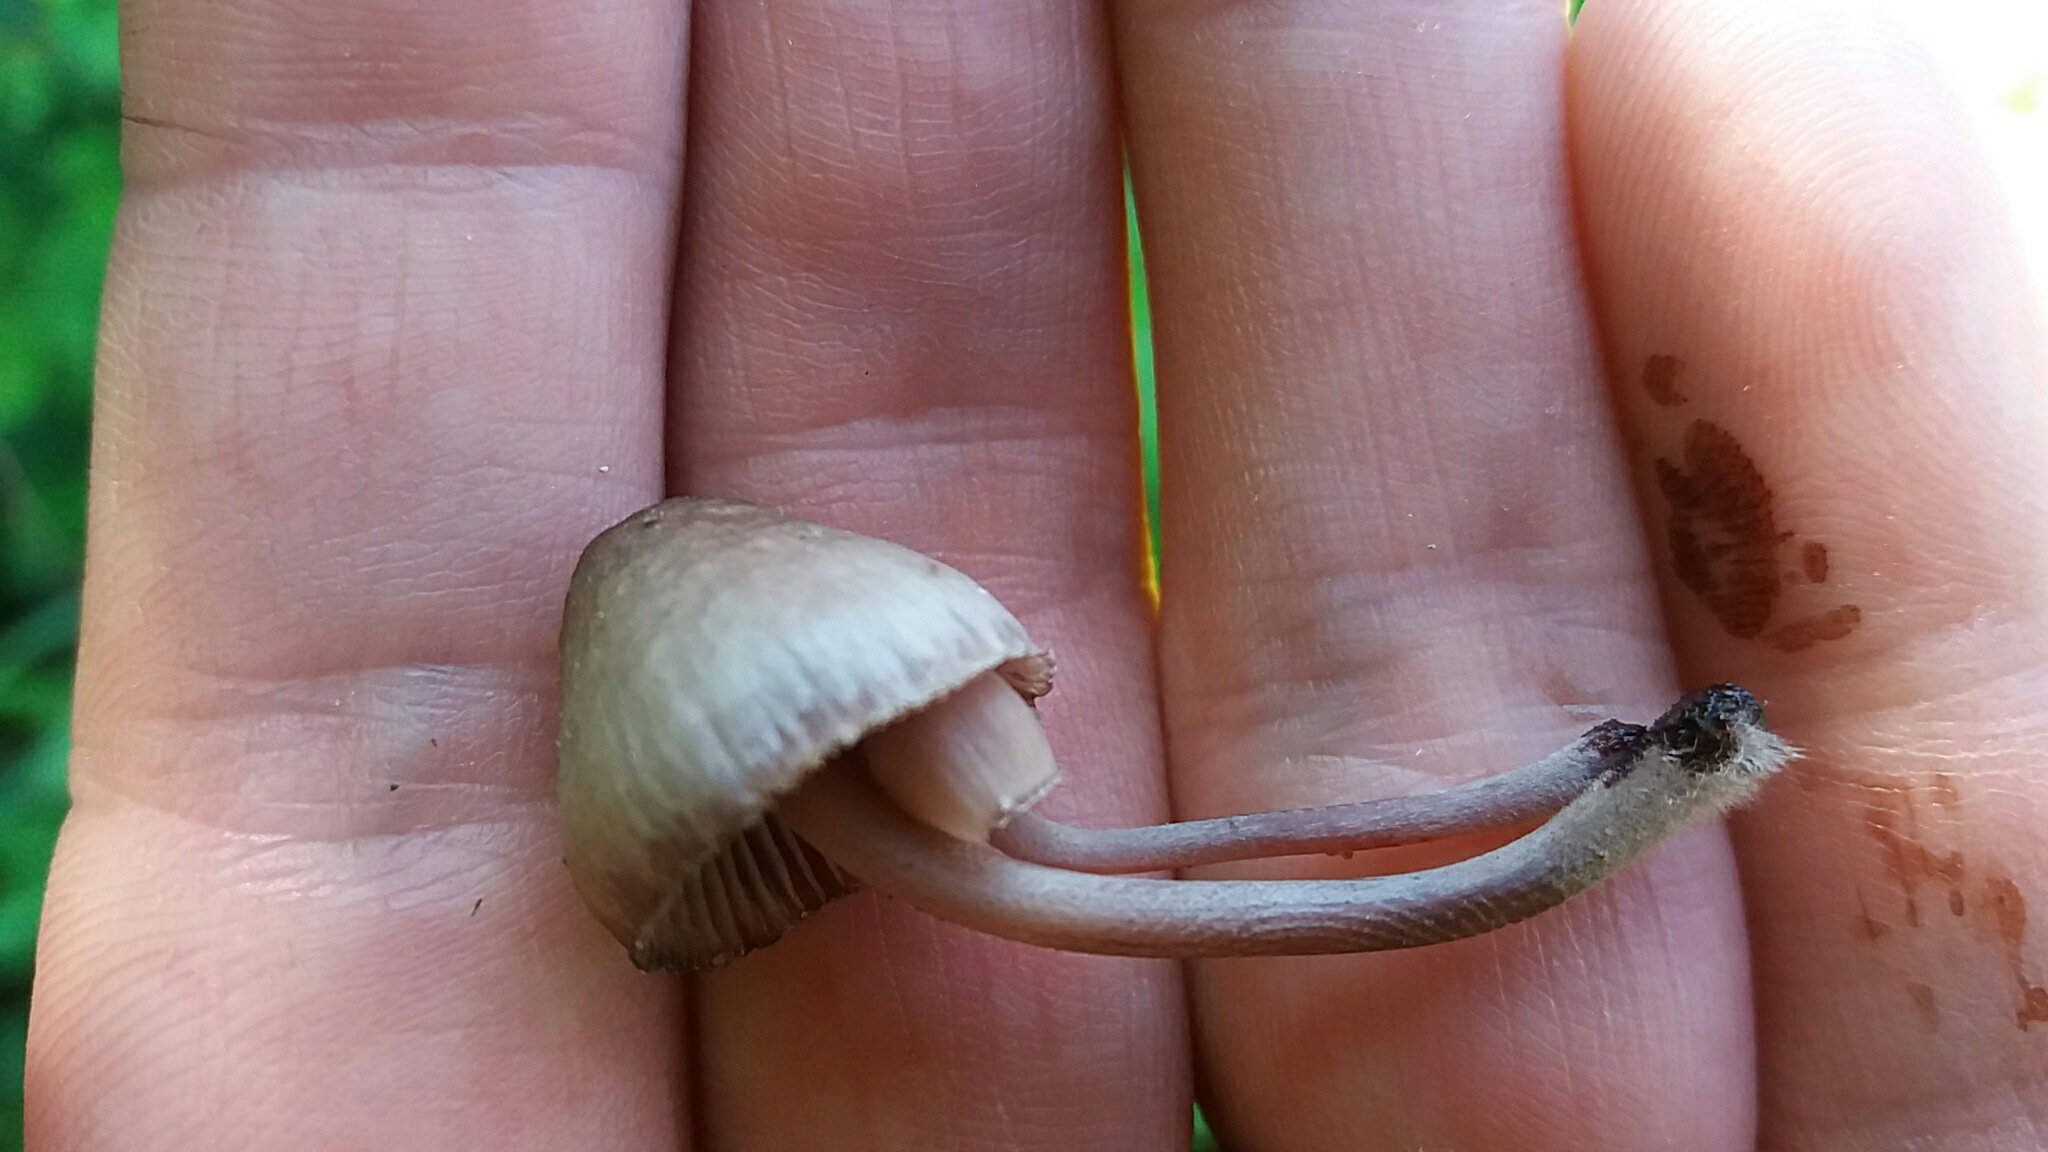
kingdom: Fungi
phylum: Basidiomycota
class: Agaricomycetes
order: Agaricales
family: Mycenaceae
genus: Mycena
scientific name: Mycena haematopus
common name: blødende huesvamp
